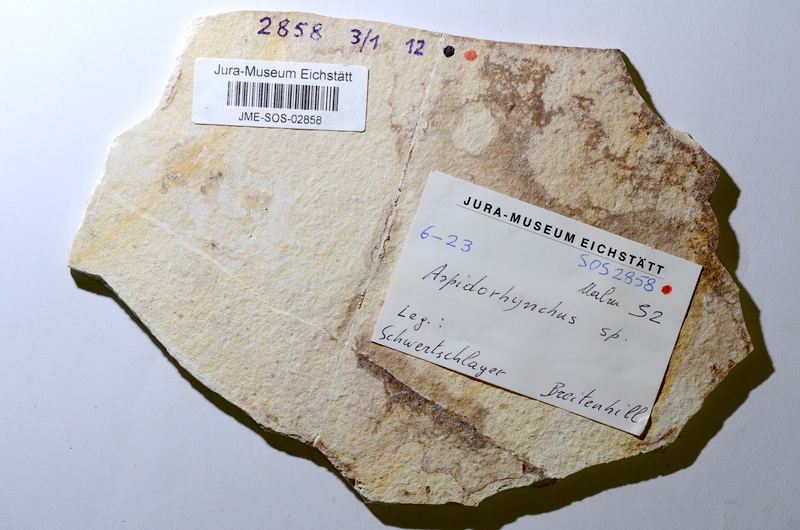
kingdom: Animalia
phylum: Chordata
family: Aspidorhynchidae
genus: Aspidorhynchus
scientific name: Aspidorhynchus acutirostris
